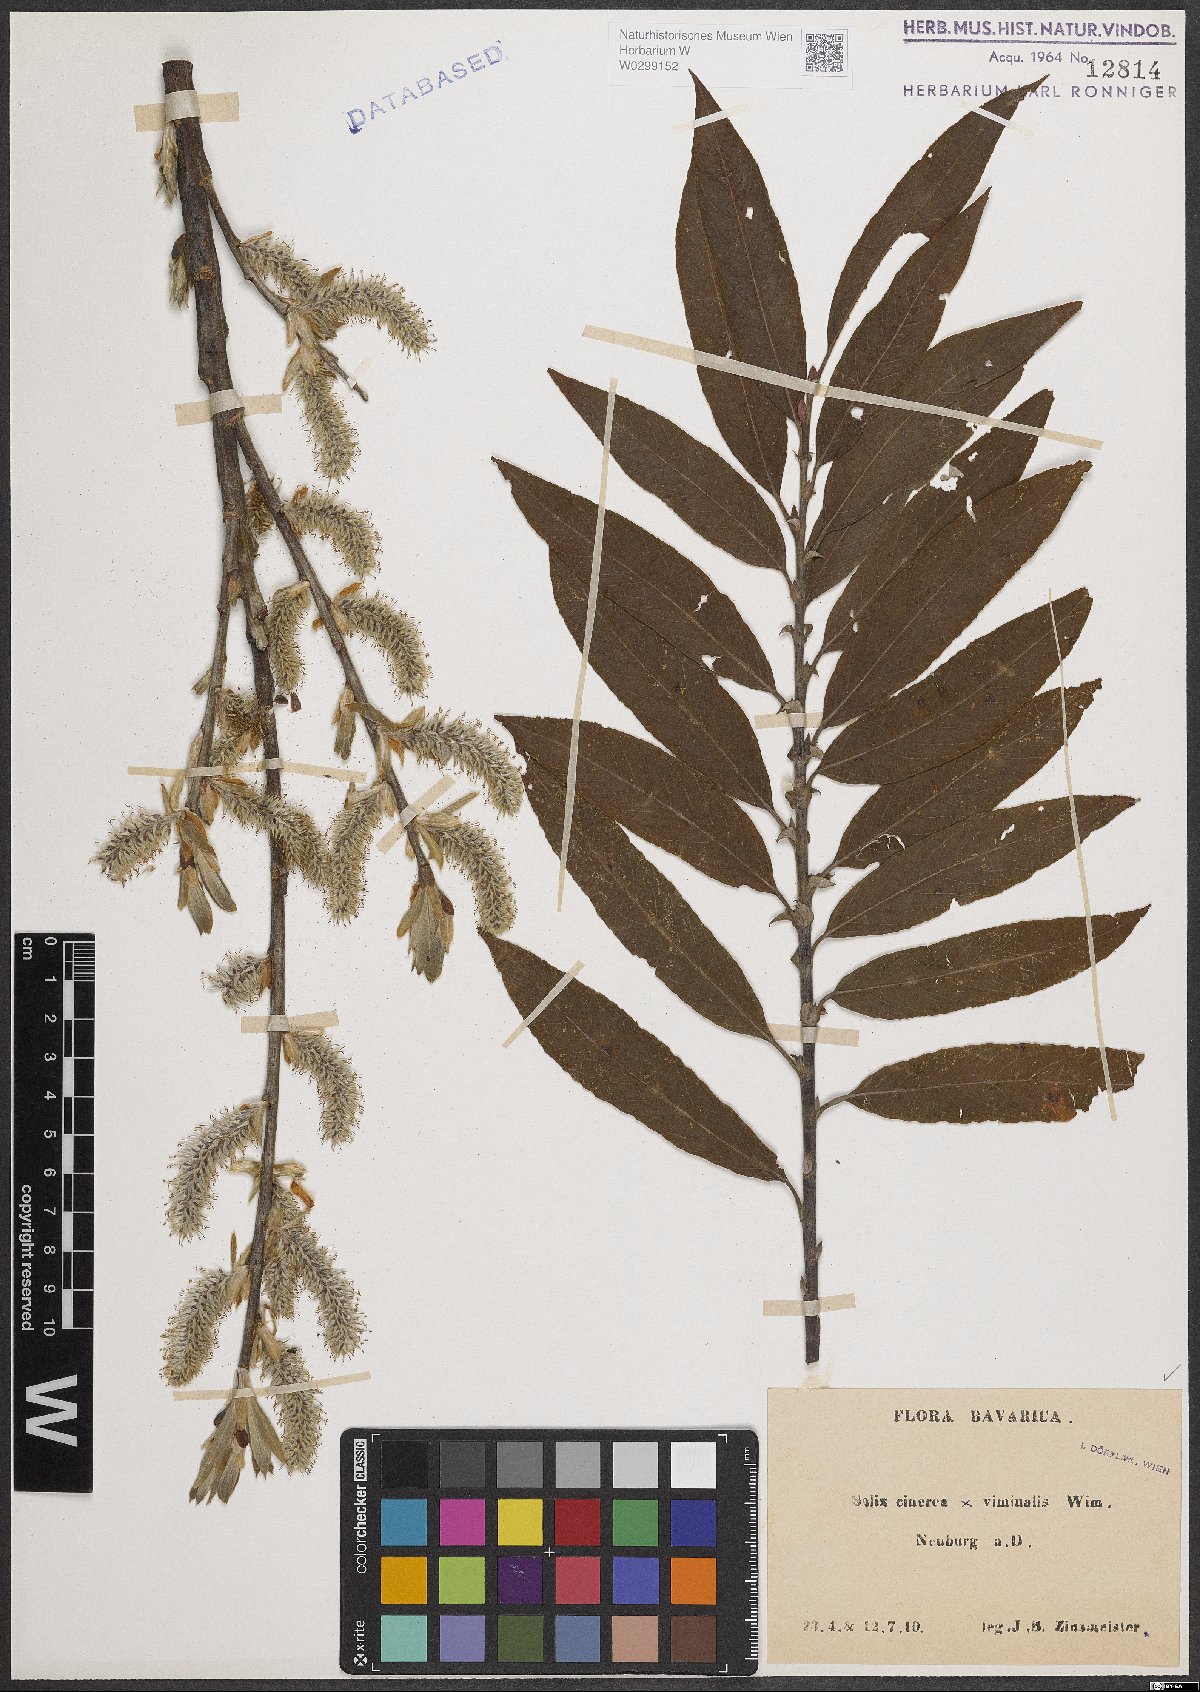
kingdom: Plantae
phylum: Tracheophyta
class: Magnoliopsida
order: Malpighiales
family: Salicaceae
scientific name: Salicaceae
